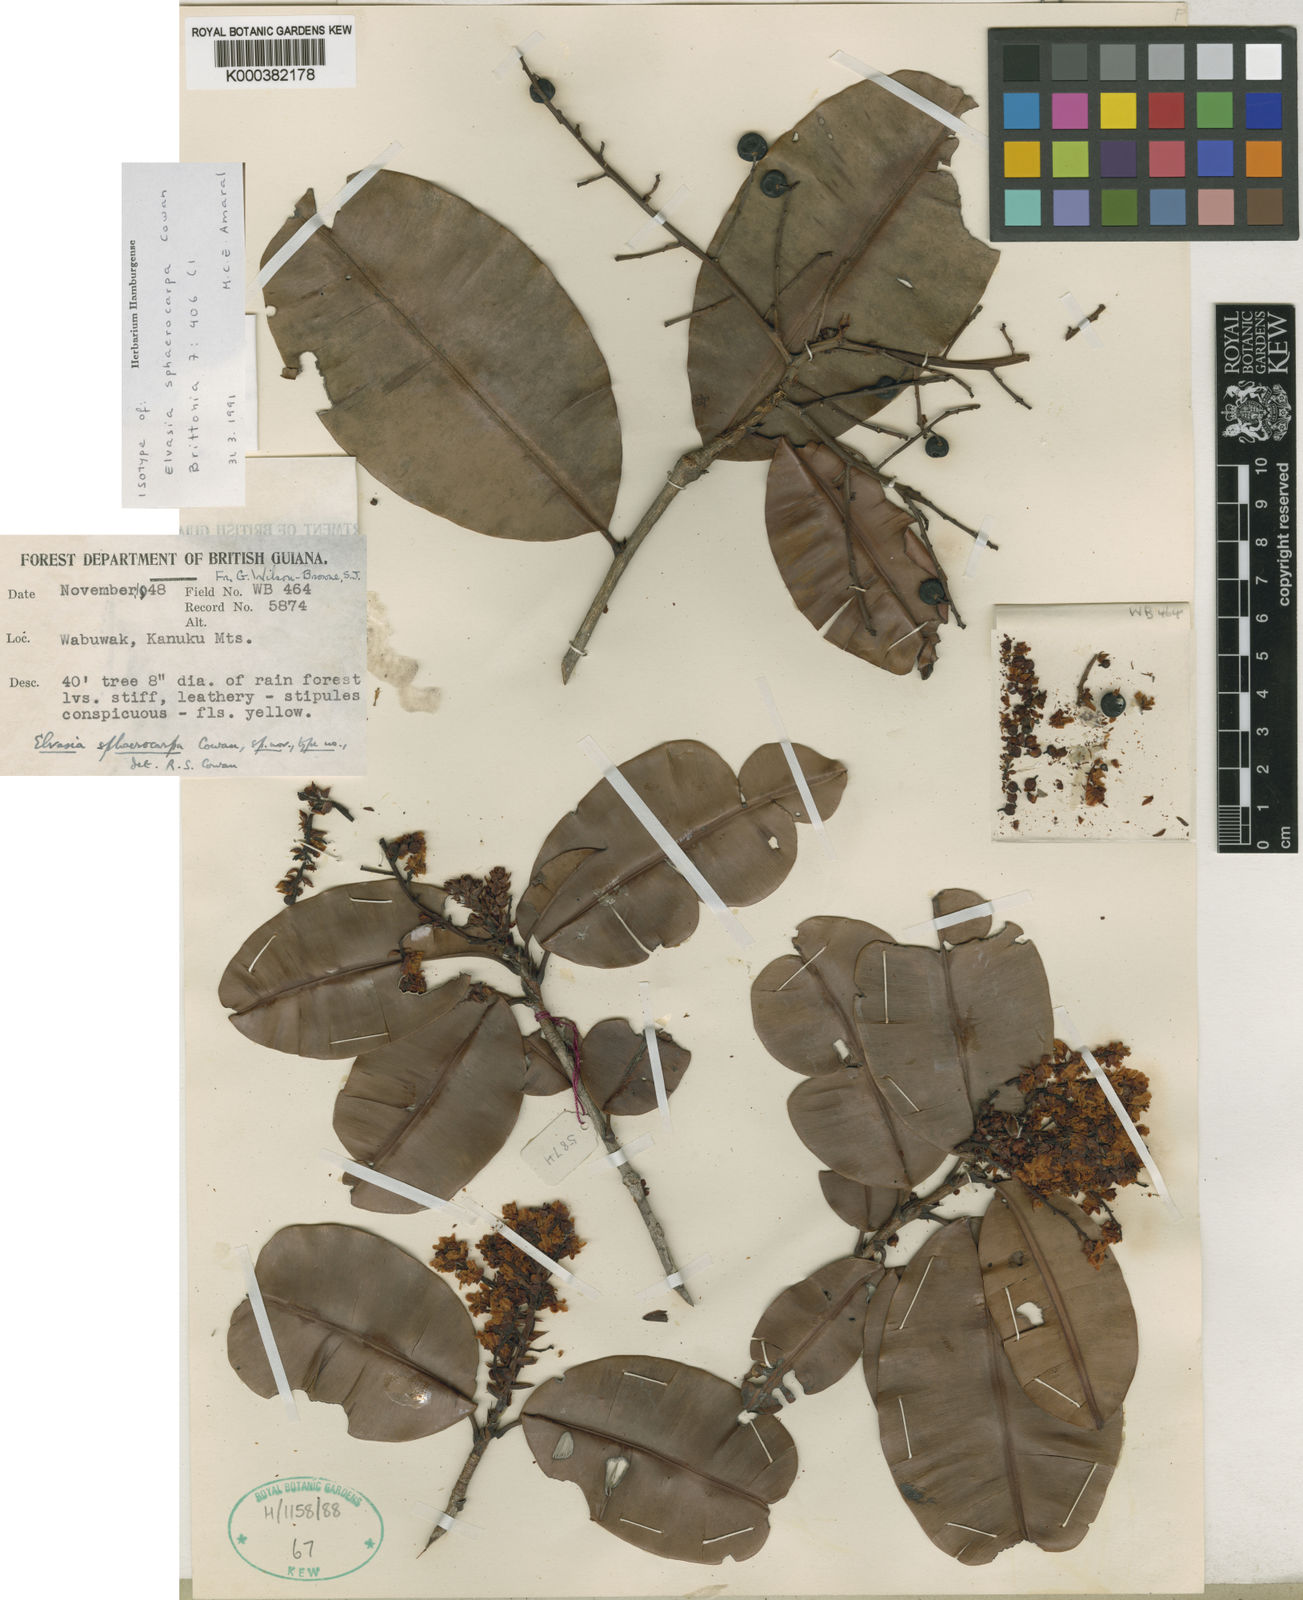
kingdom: Plantae
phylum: Tracheophyta
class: Magnoliopsida
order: Malpighiales
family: Ochnaceae
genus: Elvasia
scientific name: Elvasia sphaerocarpa
